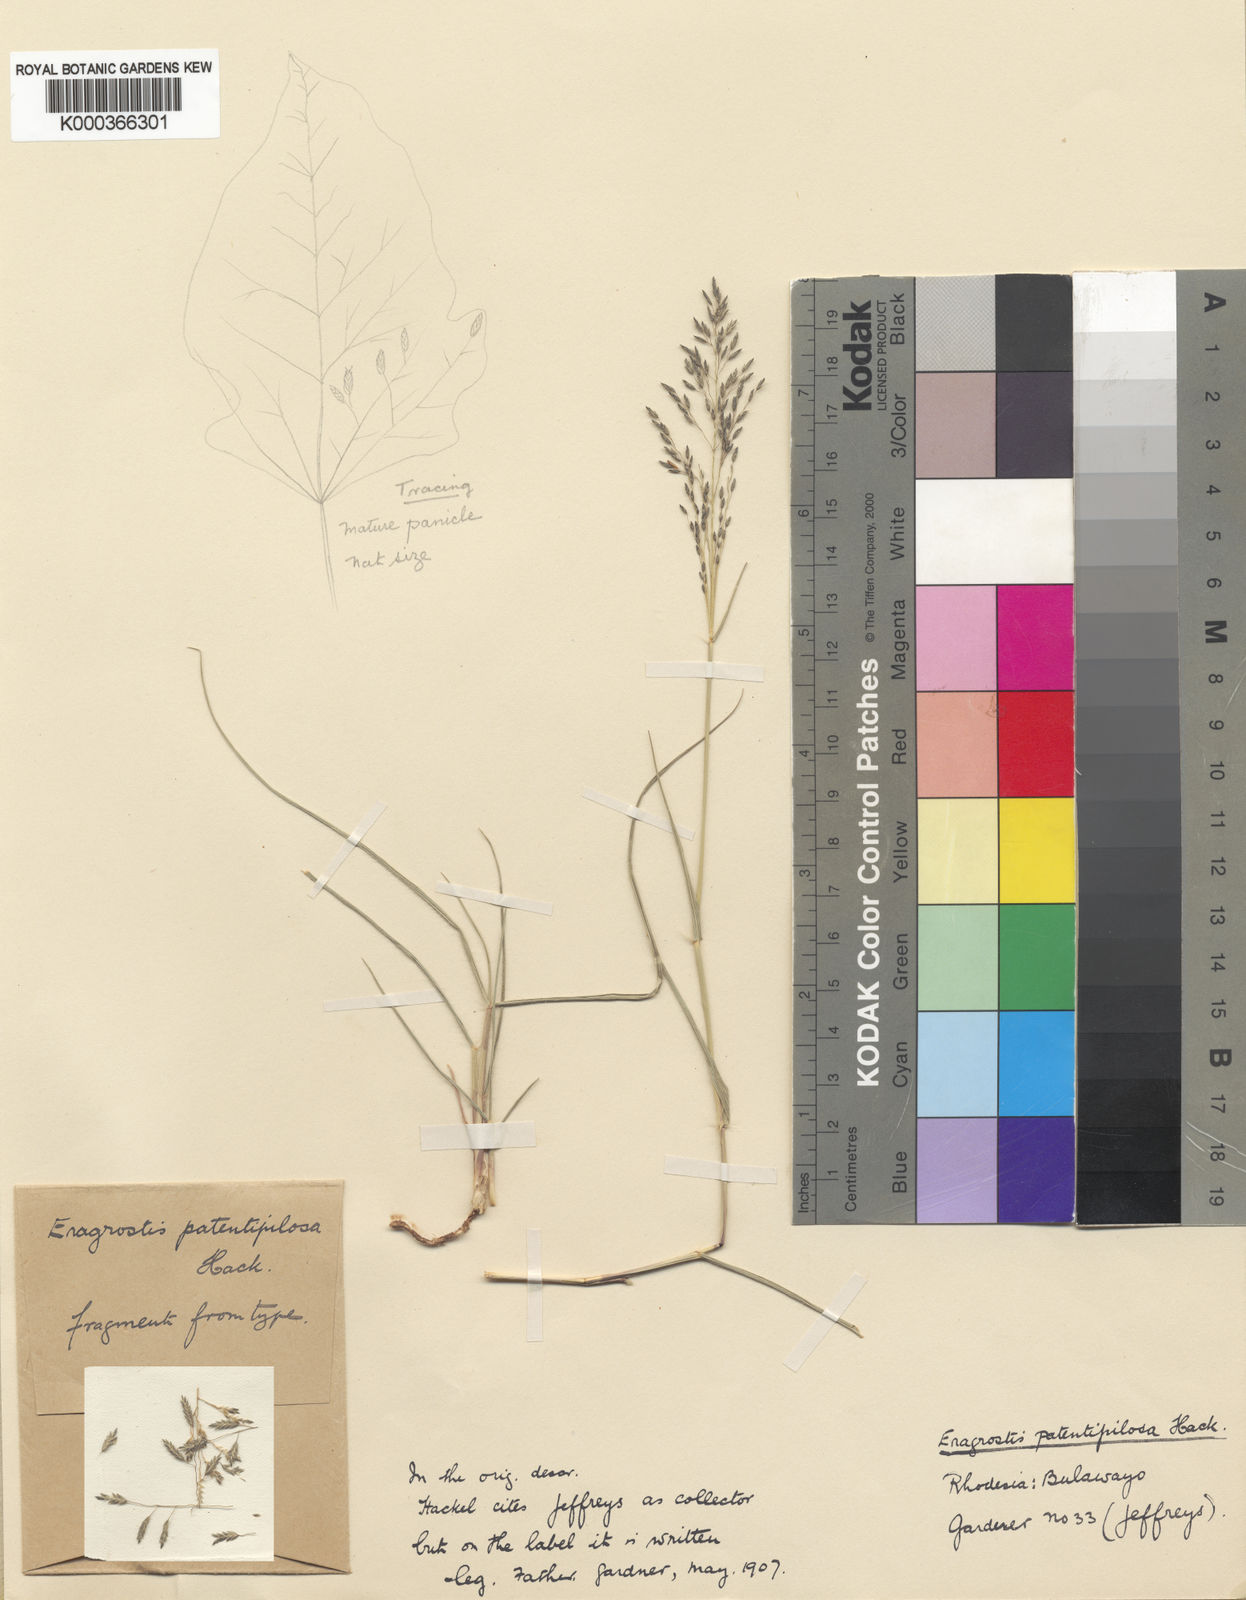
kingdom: Plantae
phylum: Tracheophyta
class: Liliopsida
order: Poales
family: Poaceae
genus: Eragrostis
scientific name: Eragrostis patentipilosa
